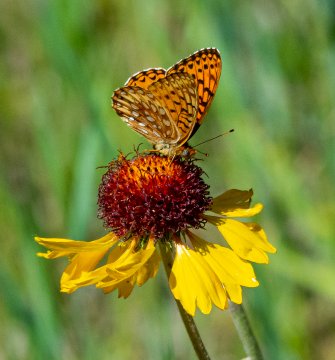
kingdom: Animalia
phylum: Arthropoda
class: Insecta
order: Lepidoptera
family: Nymphalidae
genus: Speyeria
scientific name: Speyeria atlantis
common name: Northwestern Fritillary
